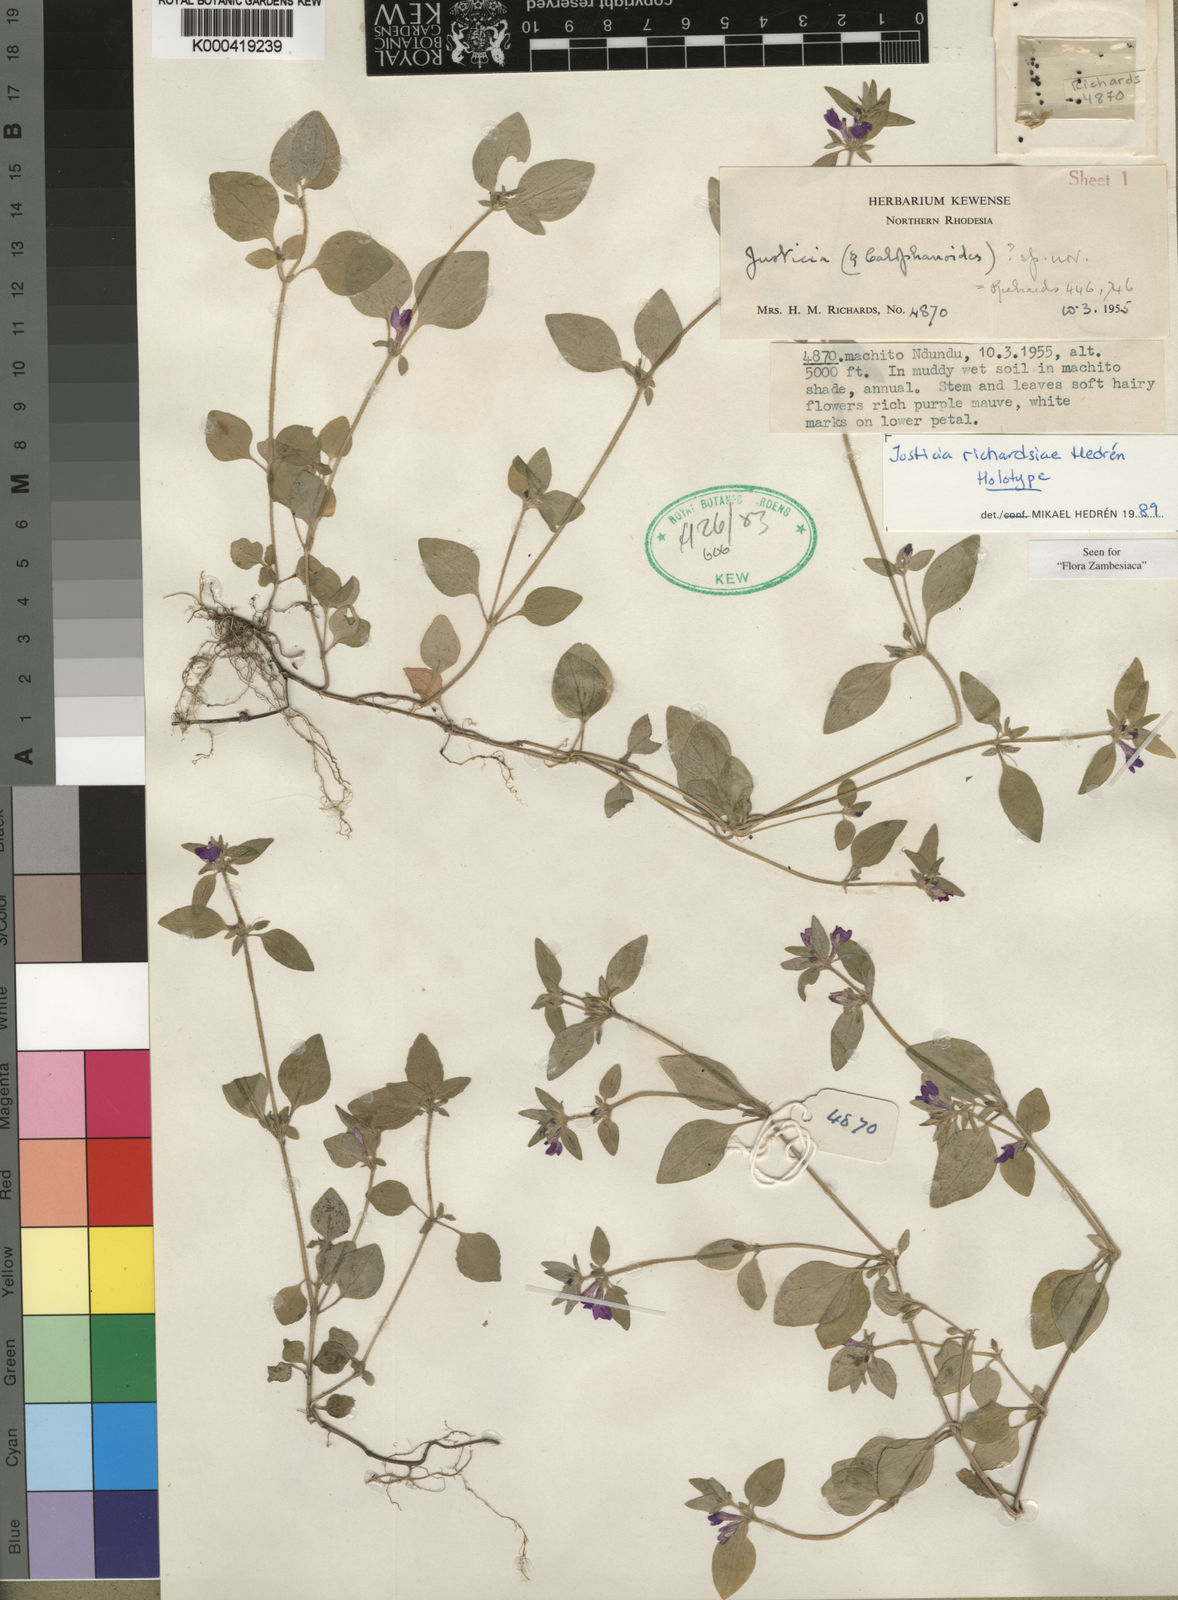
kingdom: Plantae
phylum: Tracheophyta
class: Magnoliopsida
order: Lamiales
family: Acanthaceae
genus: Justicia
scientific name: Justicia
